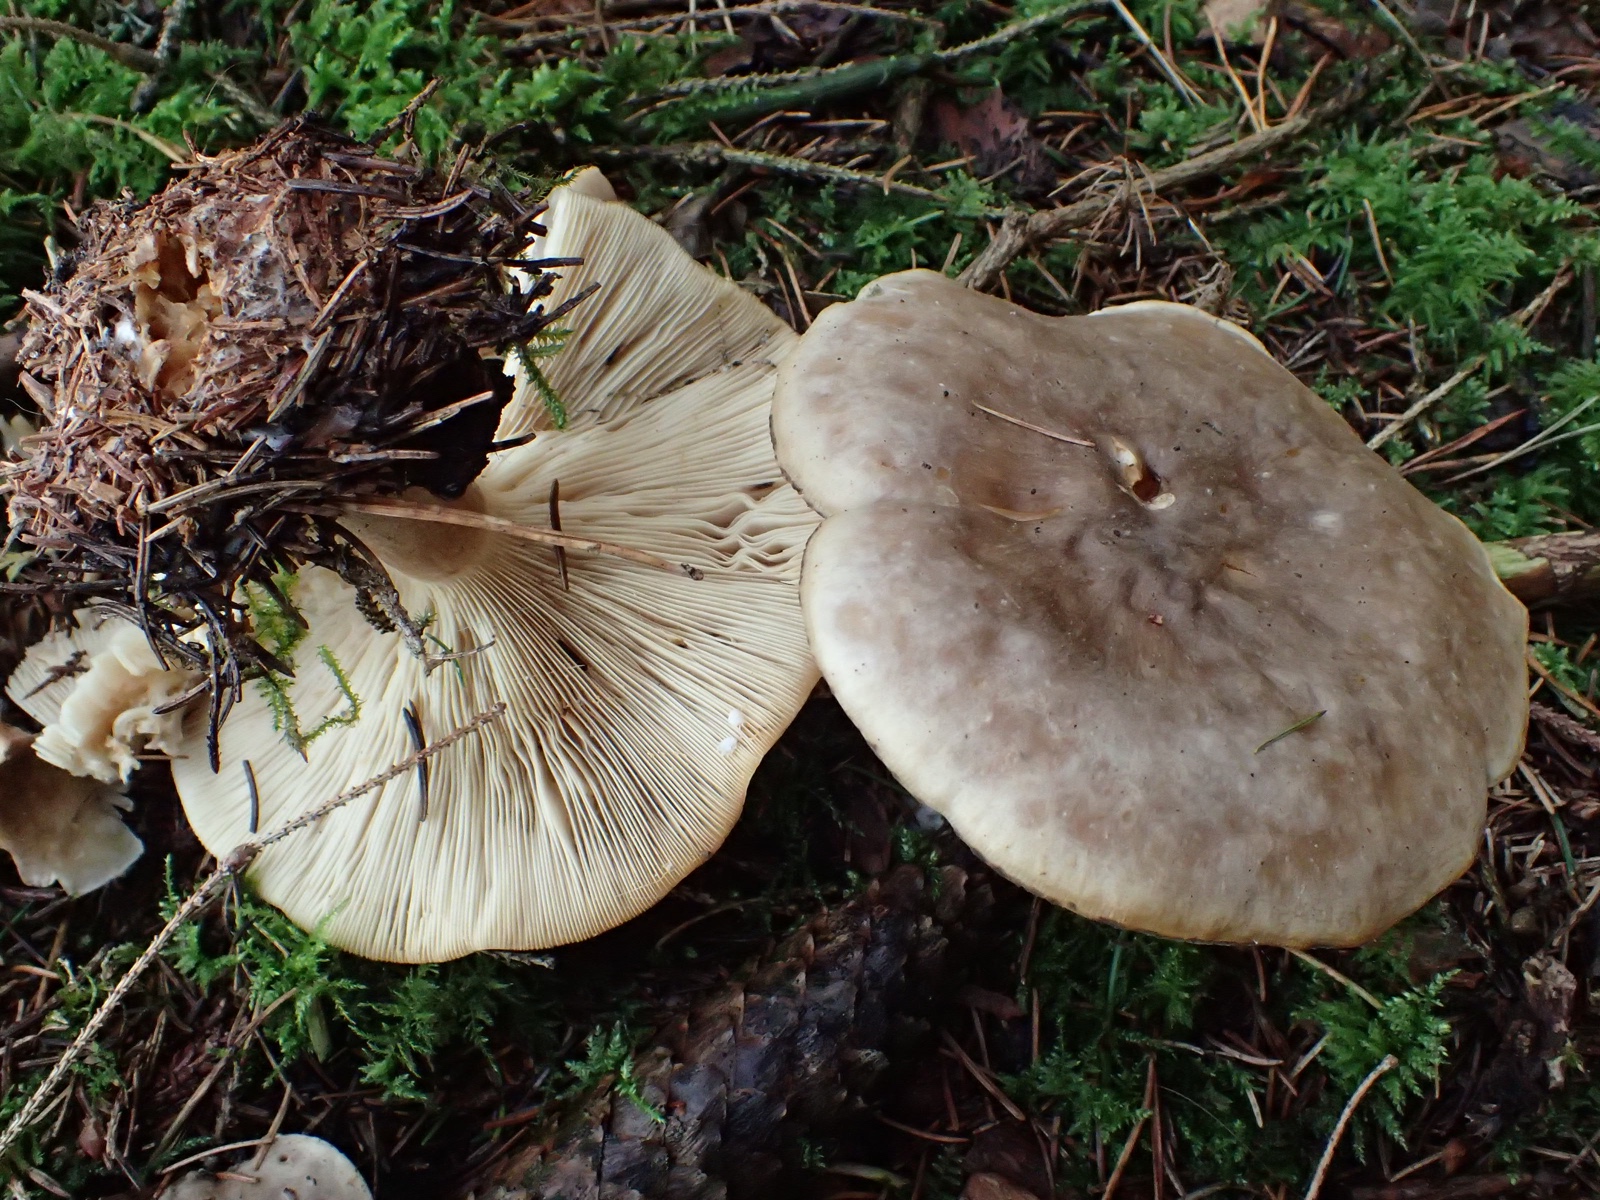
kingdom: Fungi
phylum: Basidiomycota
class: Agaricomycetes
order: Agaricales
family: Tricholomataceae
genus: Clitocybe
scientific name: Clitocybe nebularis
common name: tåge-tragthat
